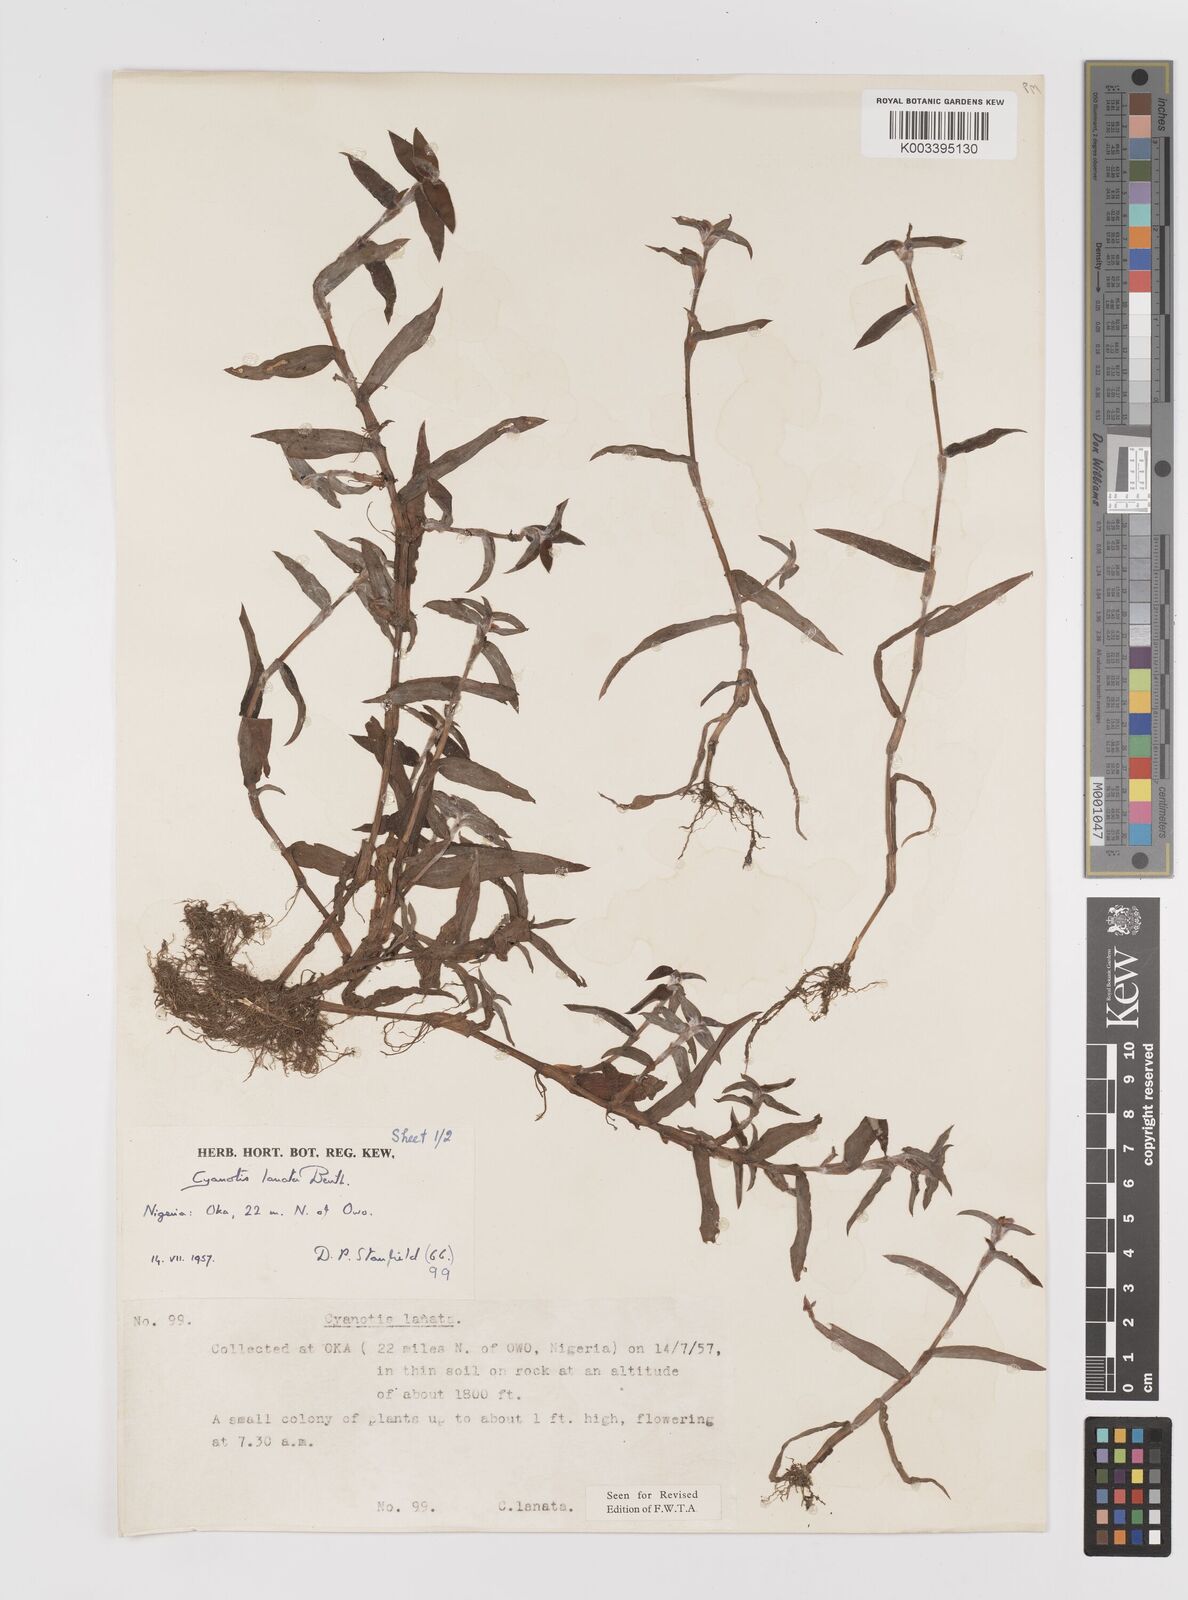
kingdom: Plantae
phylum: Tracheophyta
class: Liliopsida
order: Commelinales
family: Commelinaceae
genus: Cyanotis
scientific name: Cyanotis lanata
